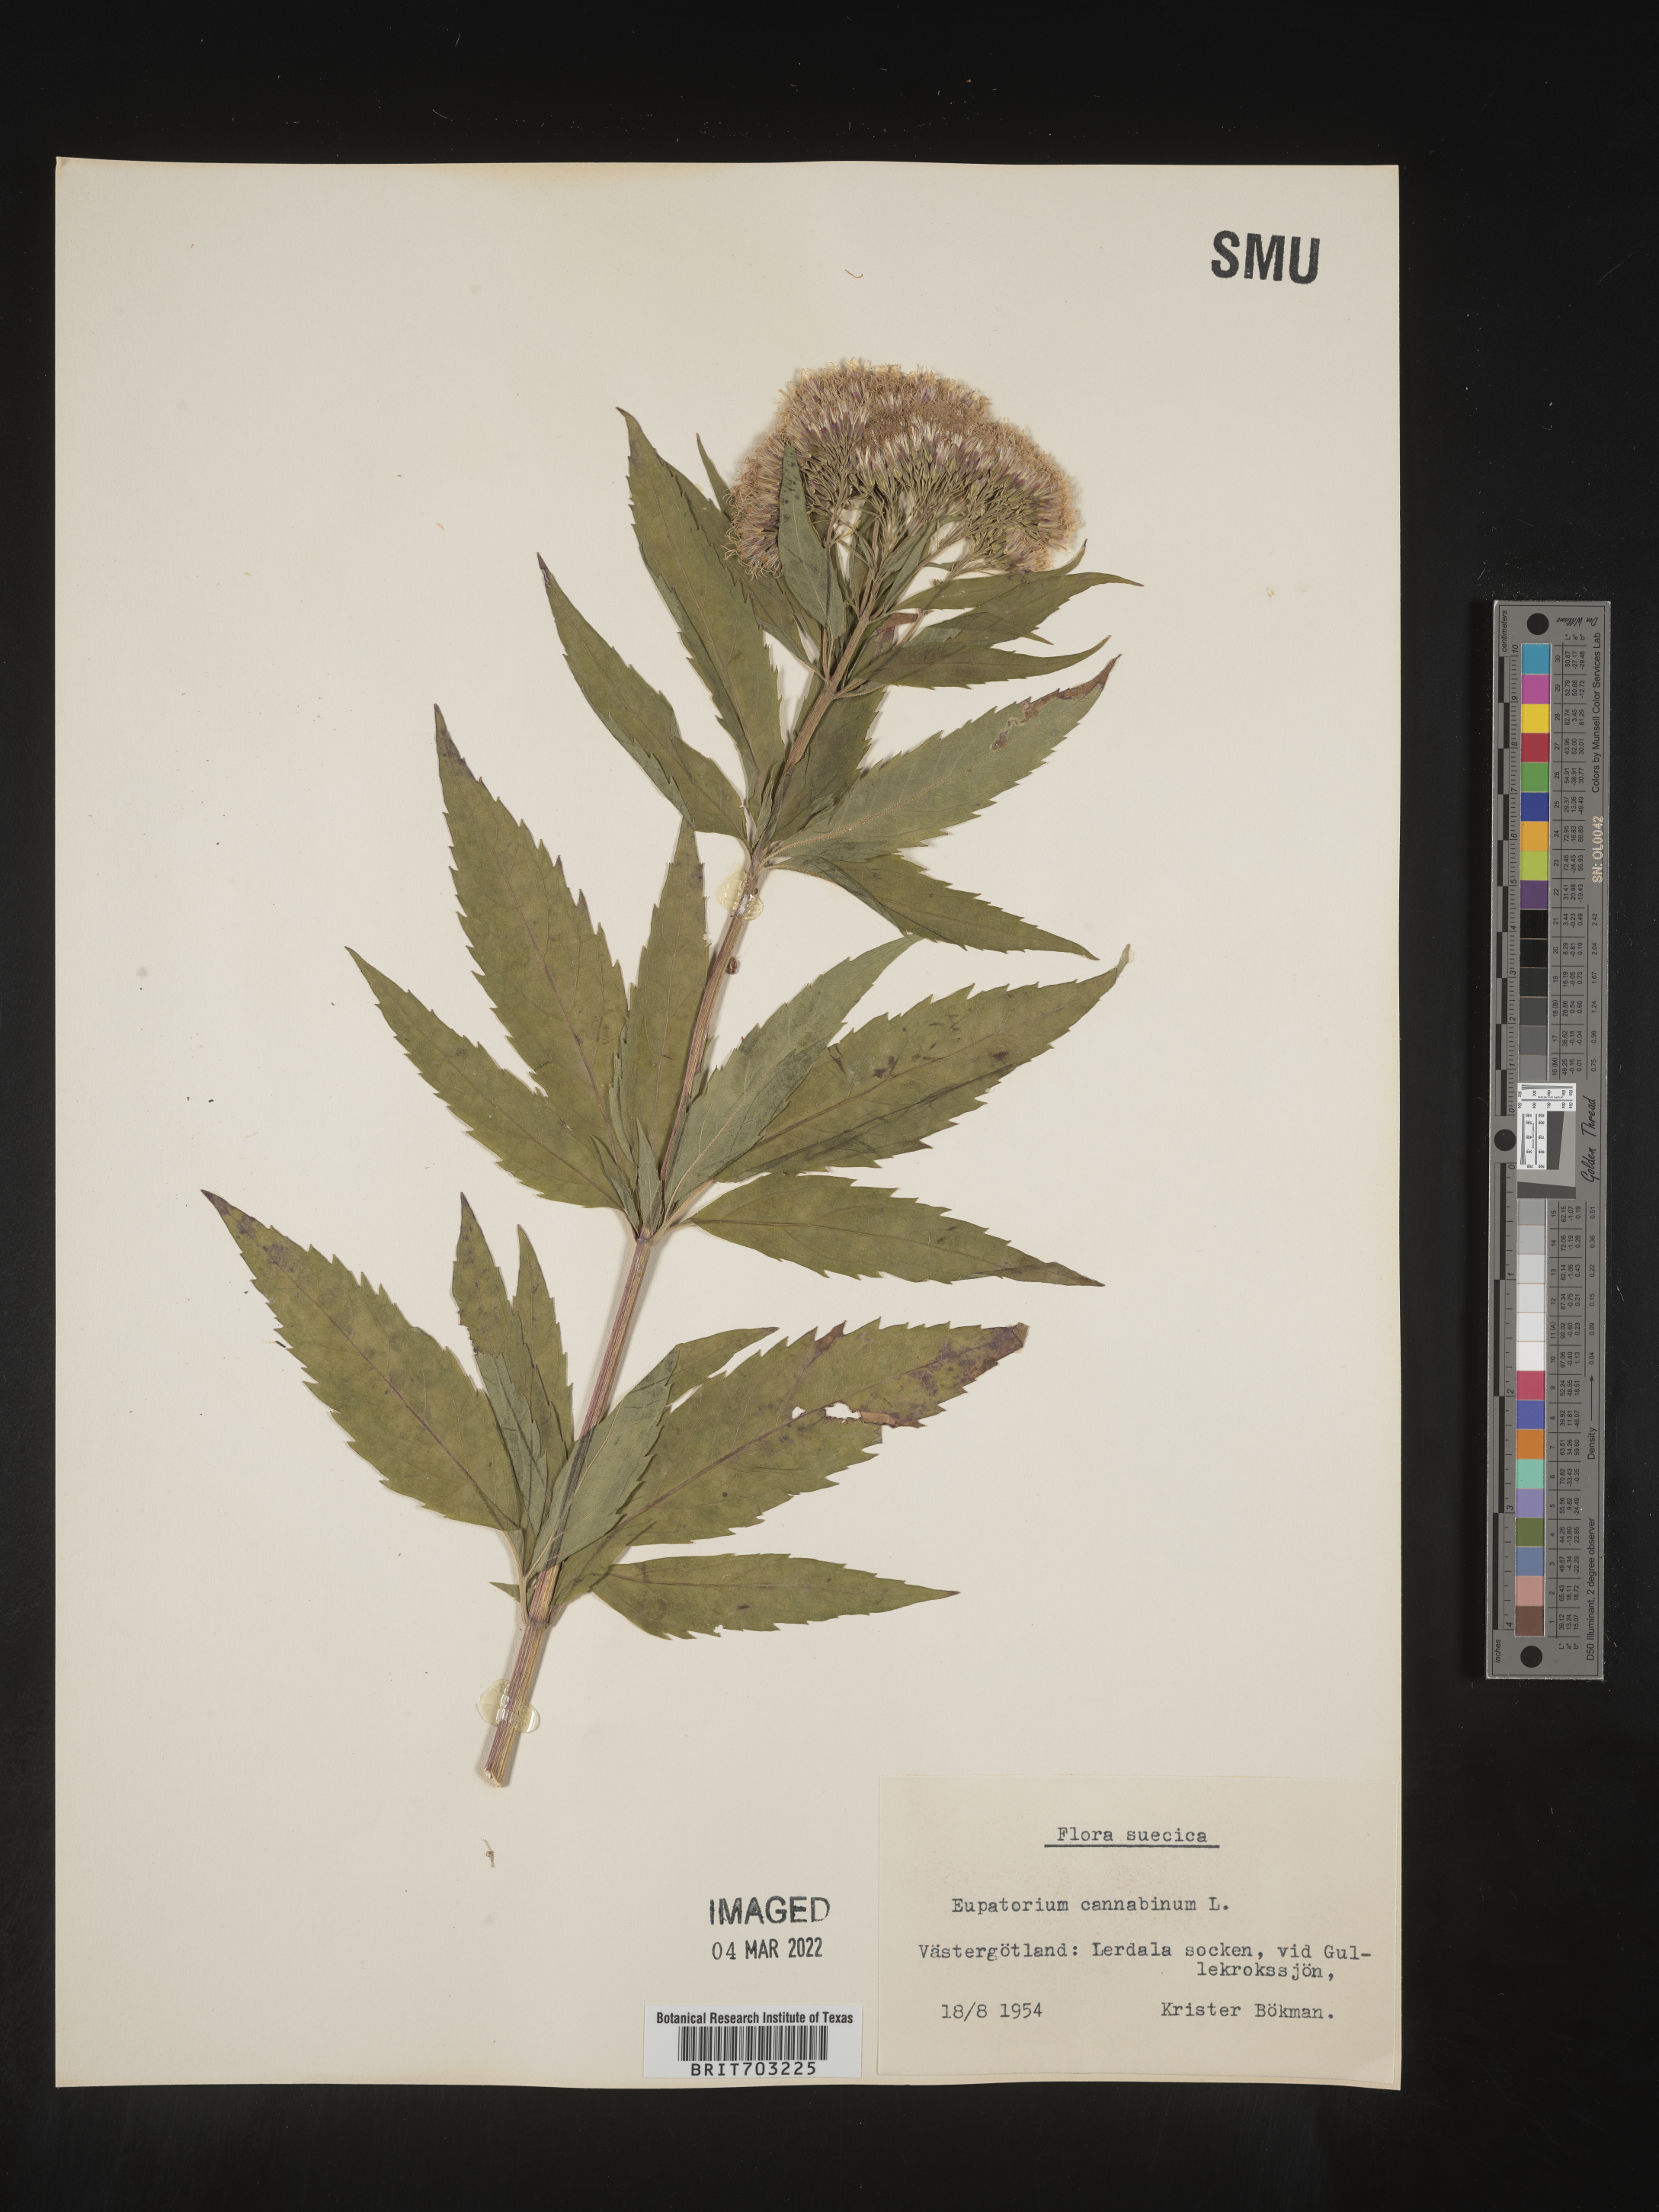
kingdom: Plantae
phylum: Tracheophyta
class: Magnoliopsida
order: Asterales
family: Asteraceae
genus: Eupatorium
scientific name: Eupatorium
